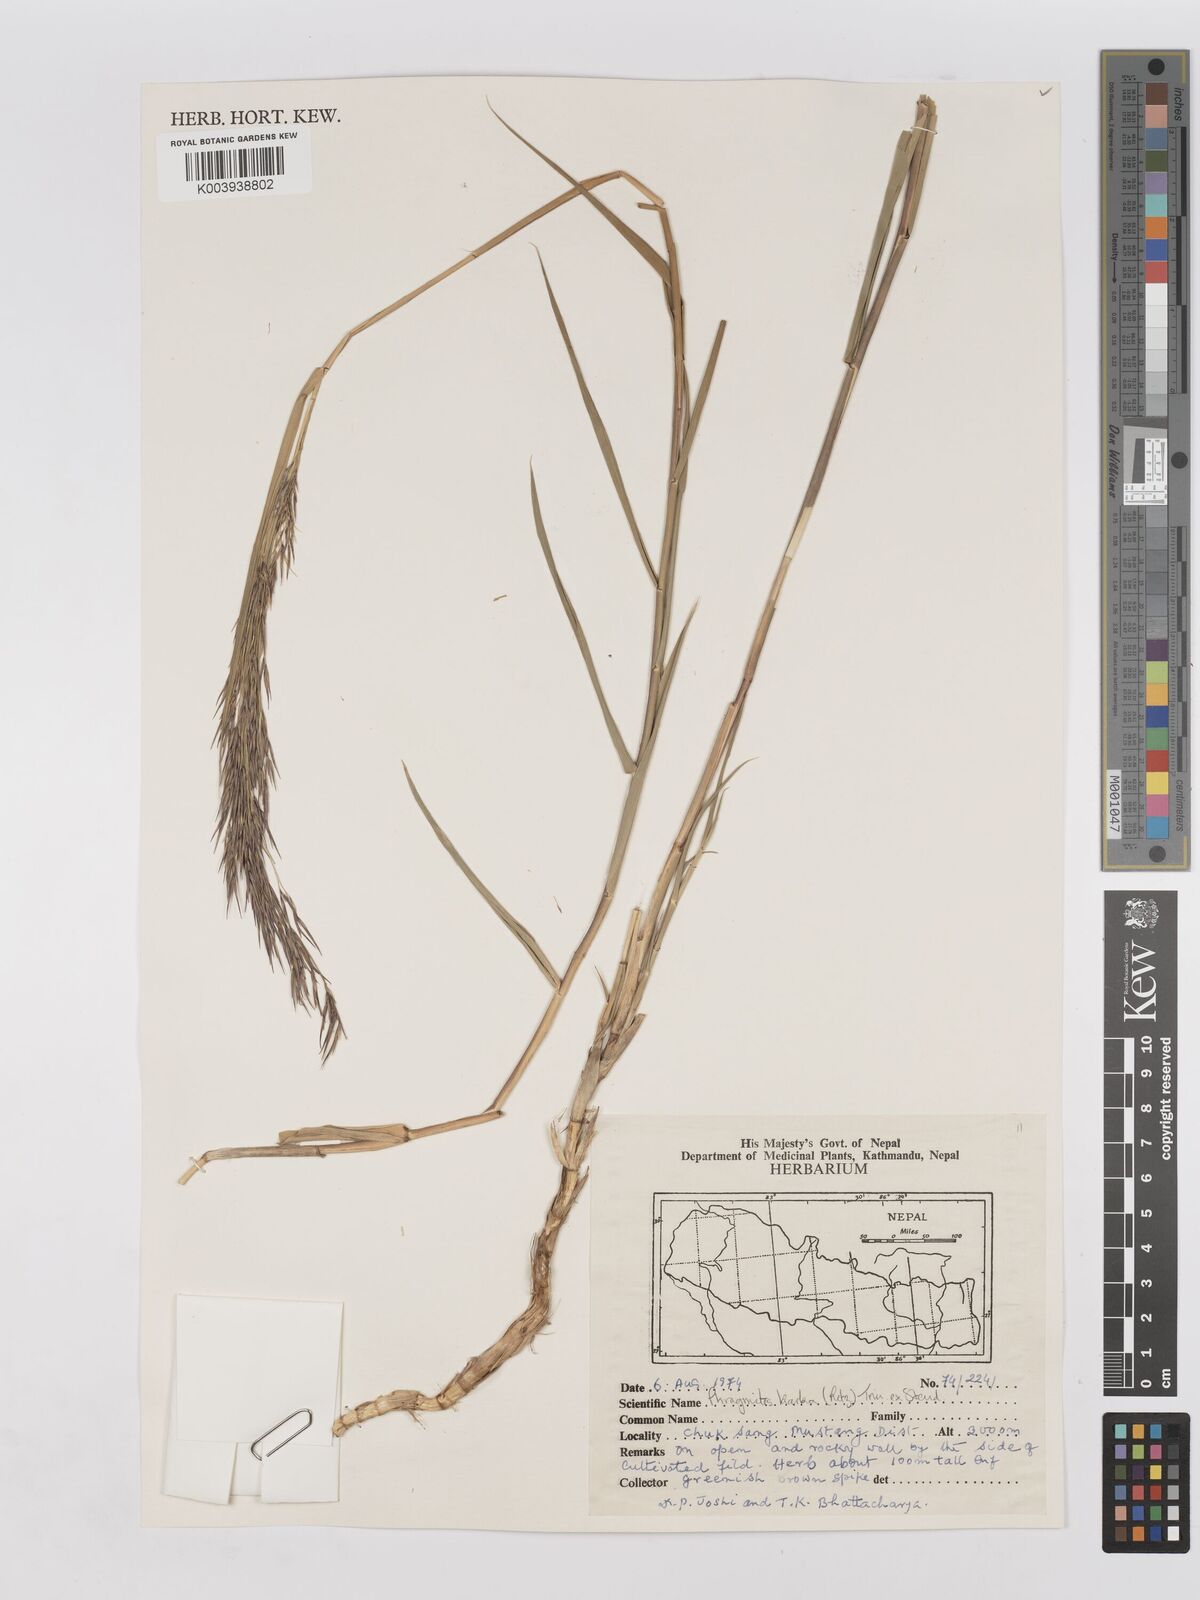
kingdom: Plantae
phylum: Tracheophyta
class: Liliopsida
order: Poales
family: Poaceae
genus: Phragmites
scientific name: Phragmites karka
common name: Tropical reed
